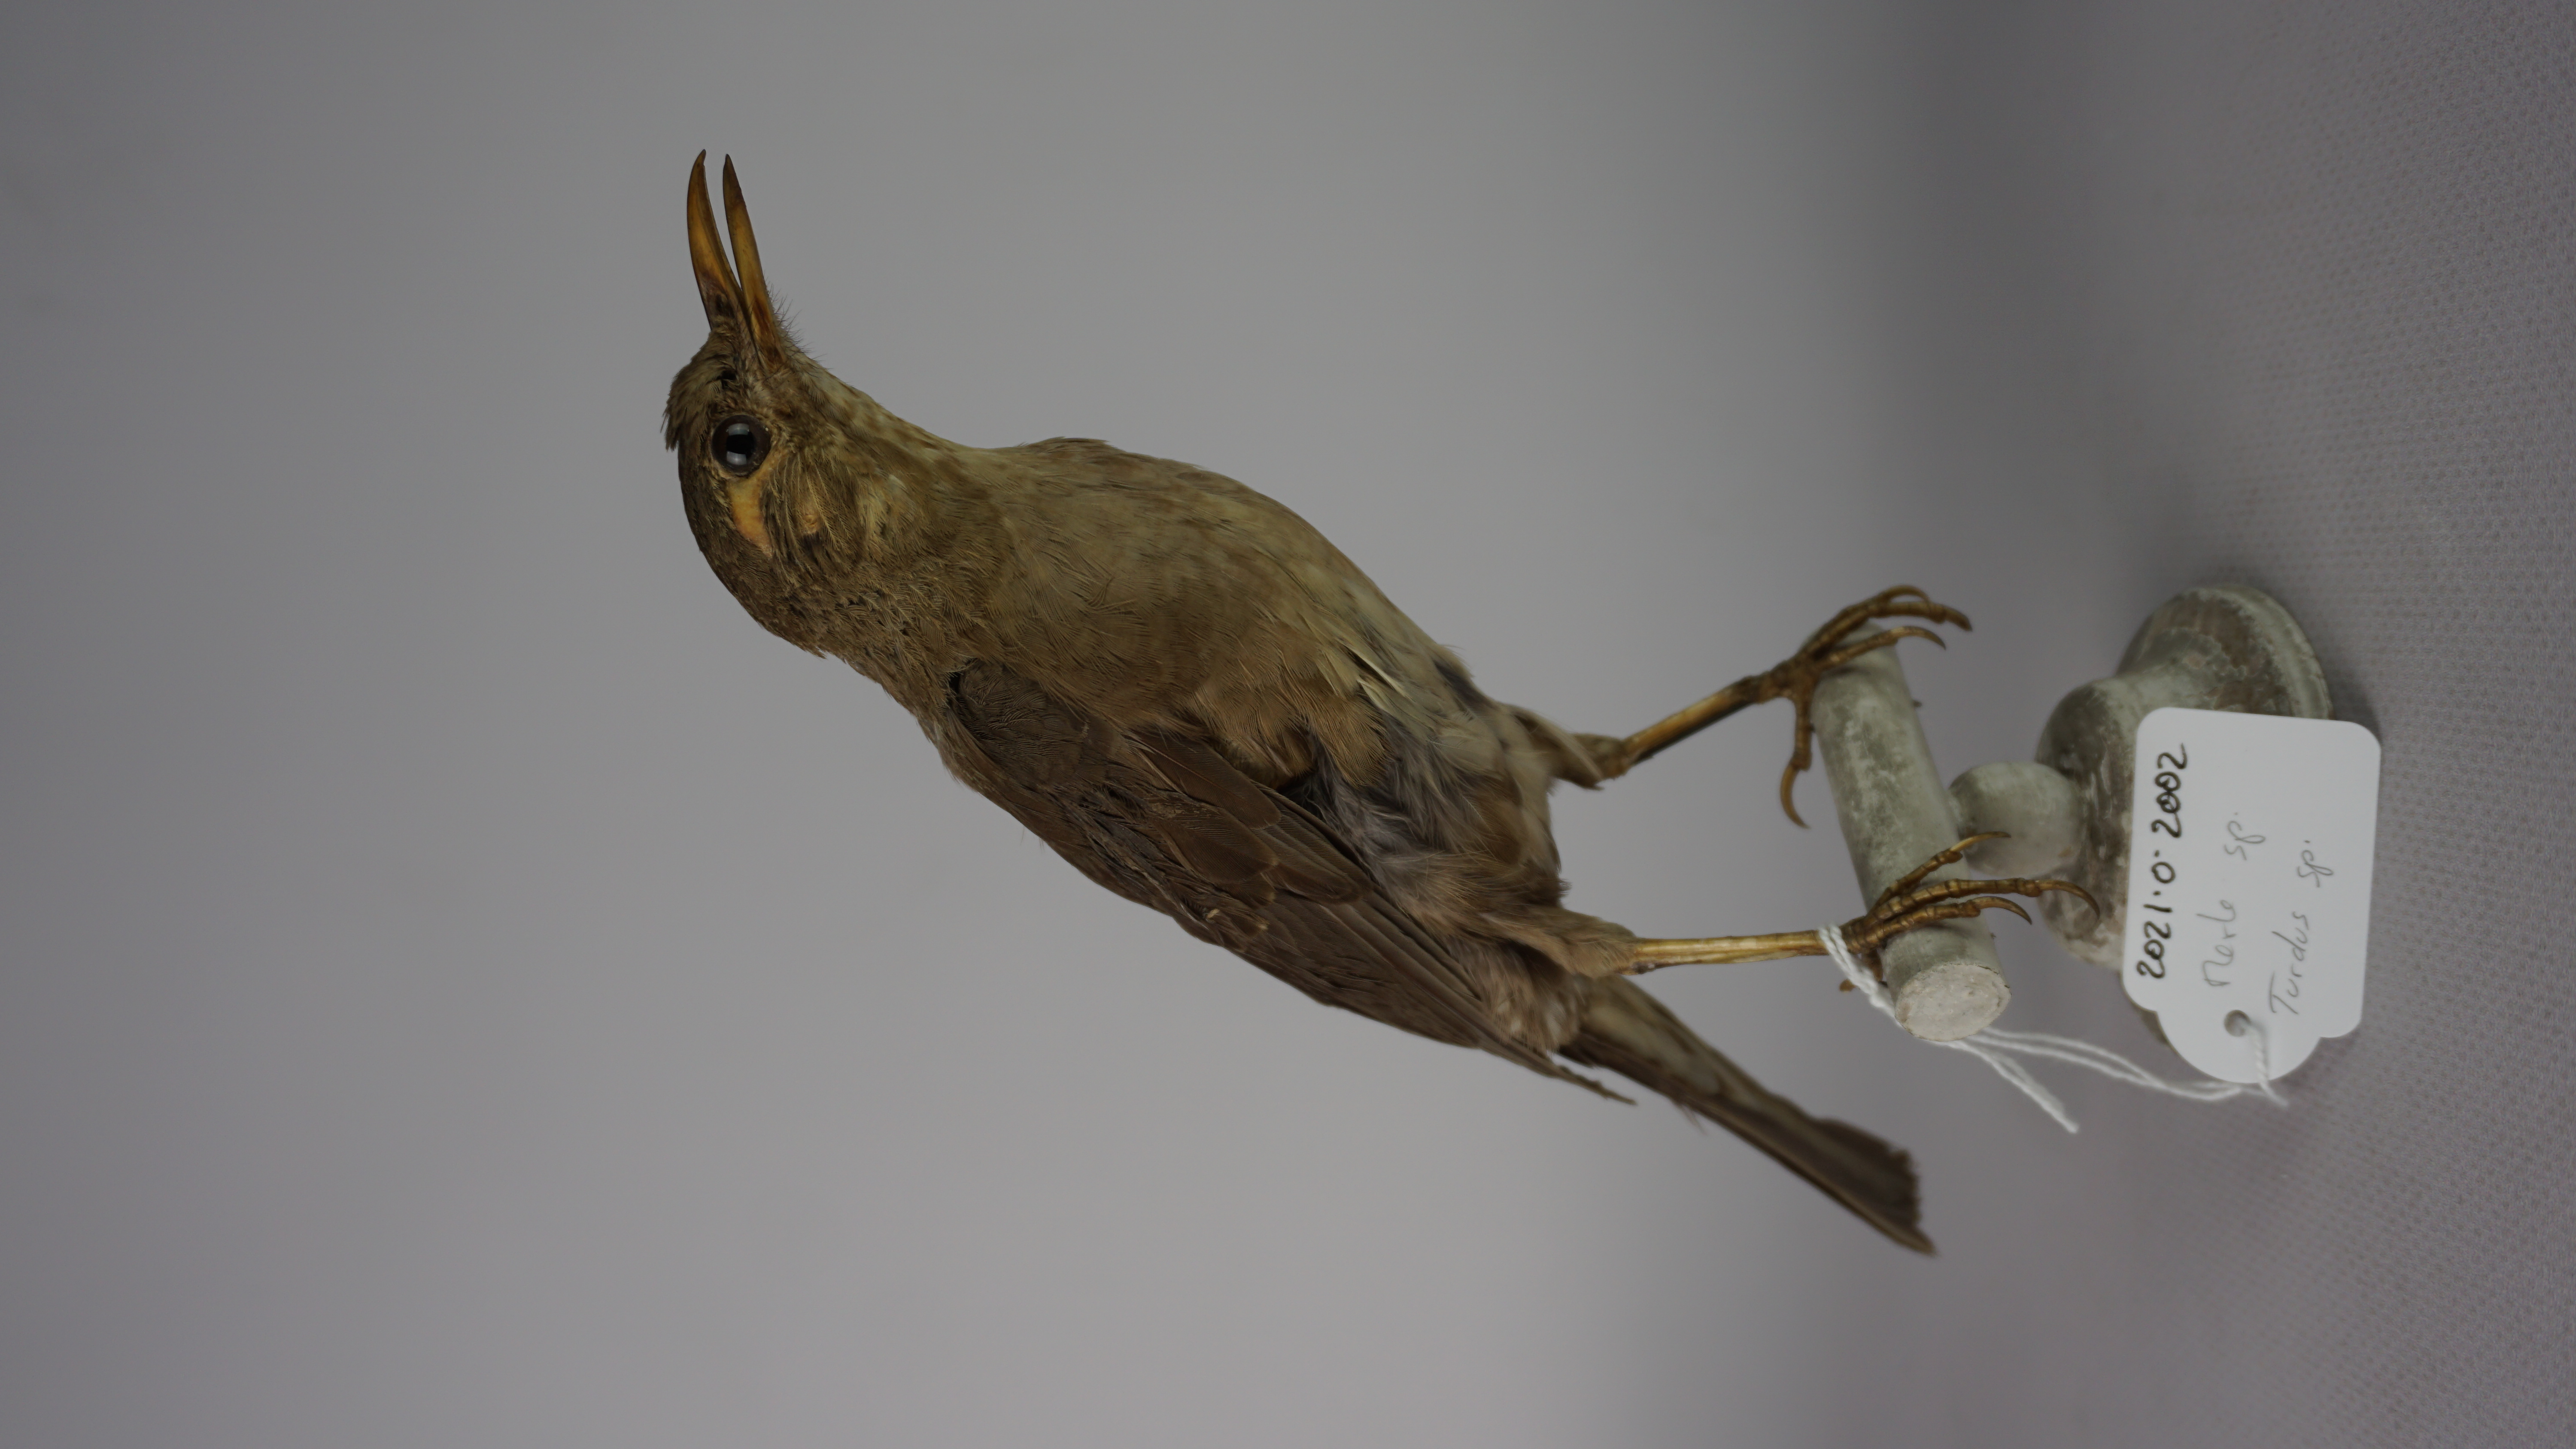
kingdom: Animalia
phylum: Chordata
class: Aves
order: Passeriformes
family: Turdidae
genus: Turdus
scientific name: Turdus
